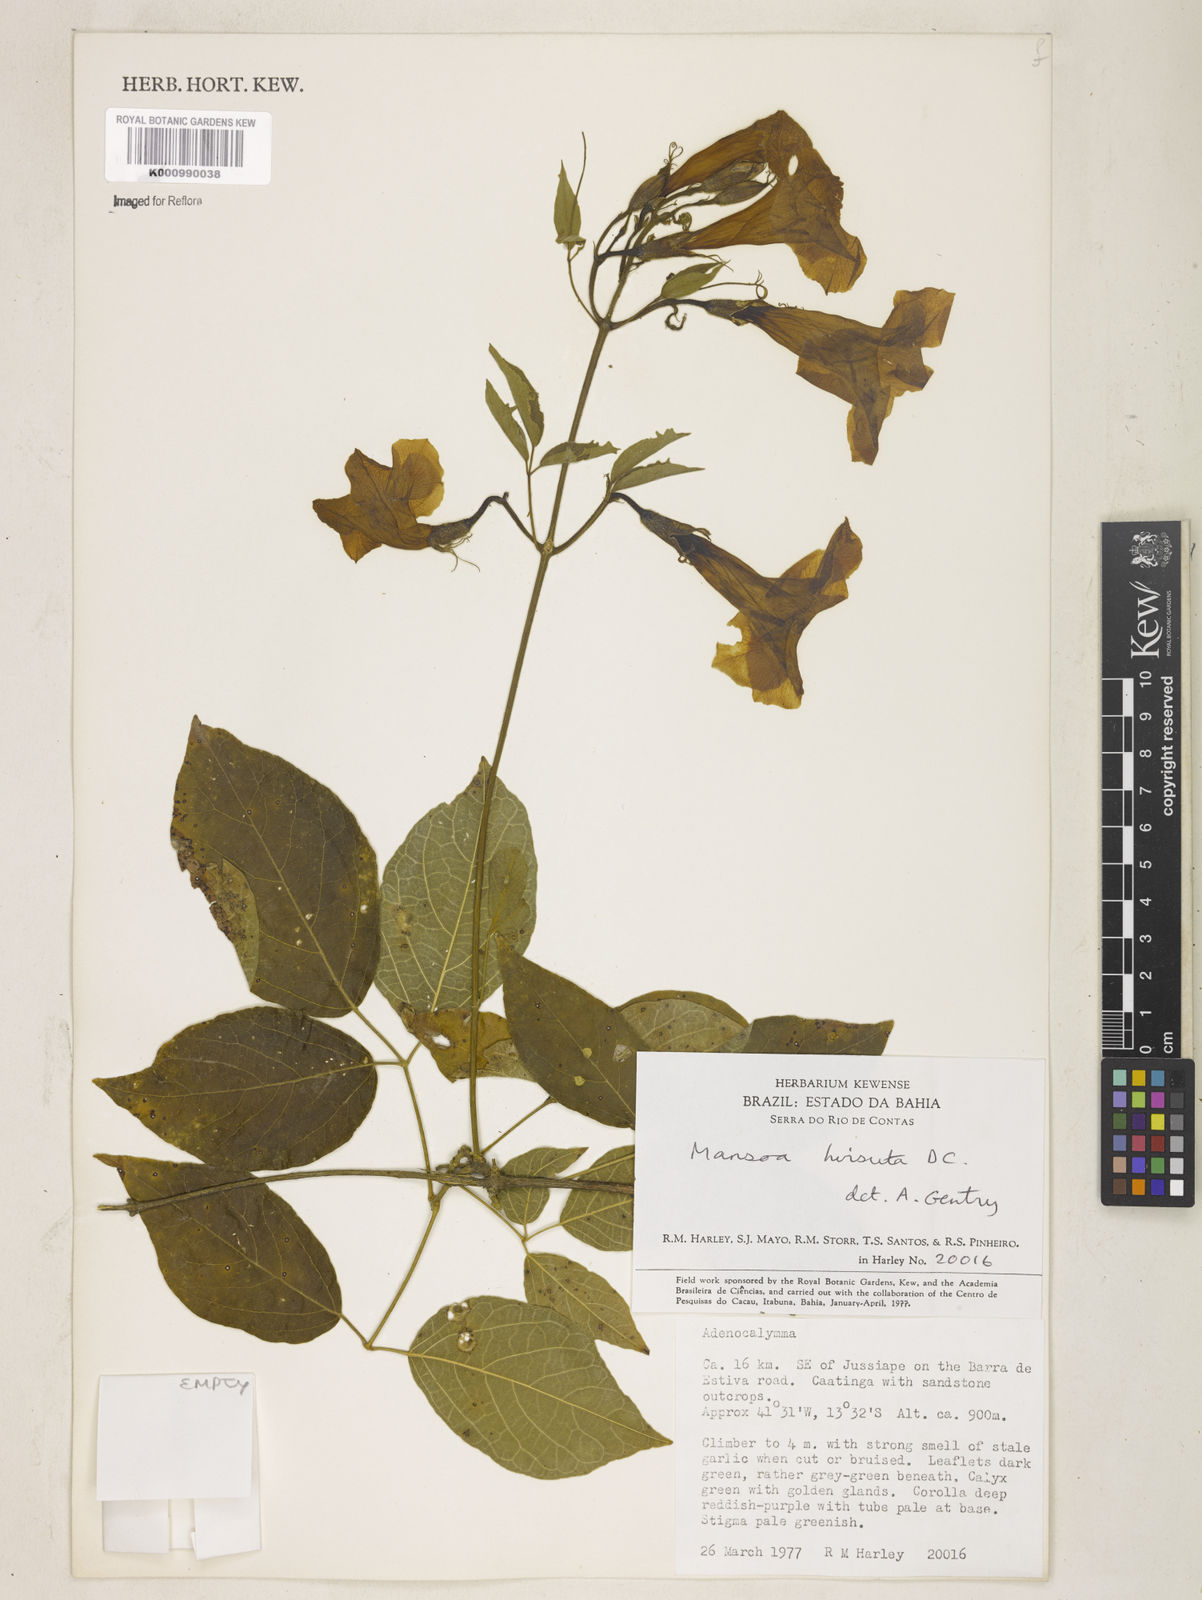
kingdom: Plantae
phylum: Tracheophyta
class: Magnoliopsida
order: Lamiales
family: Bignoniaceae
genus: Mansoa
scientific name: Mansoa hirsuta
